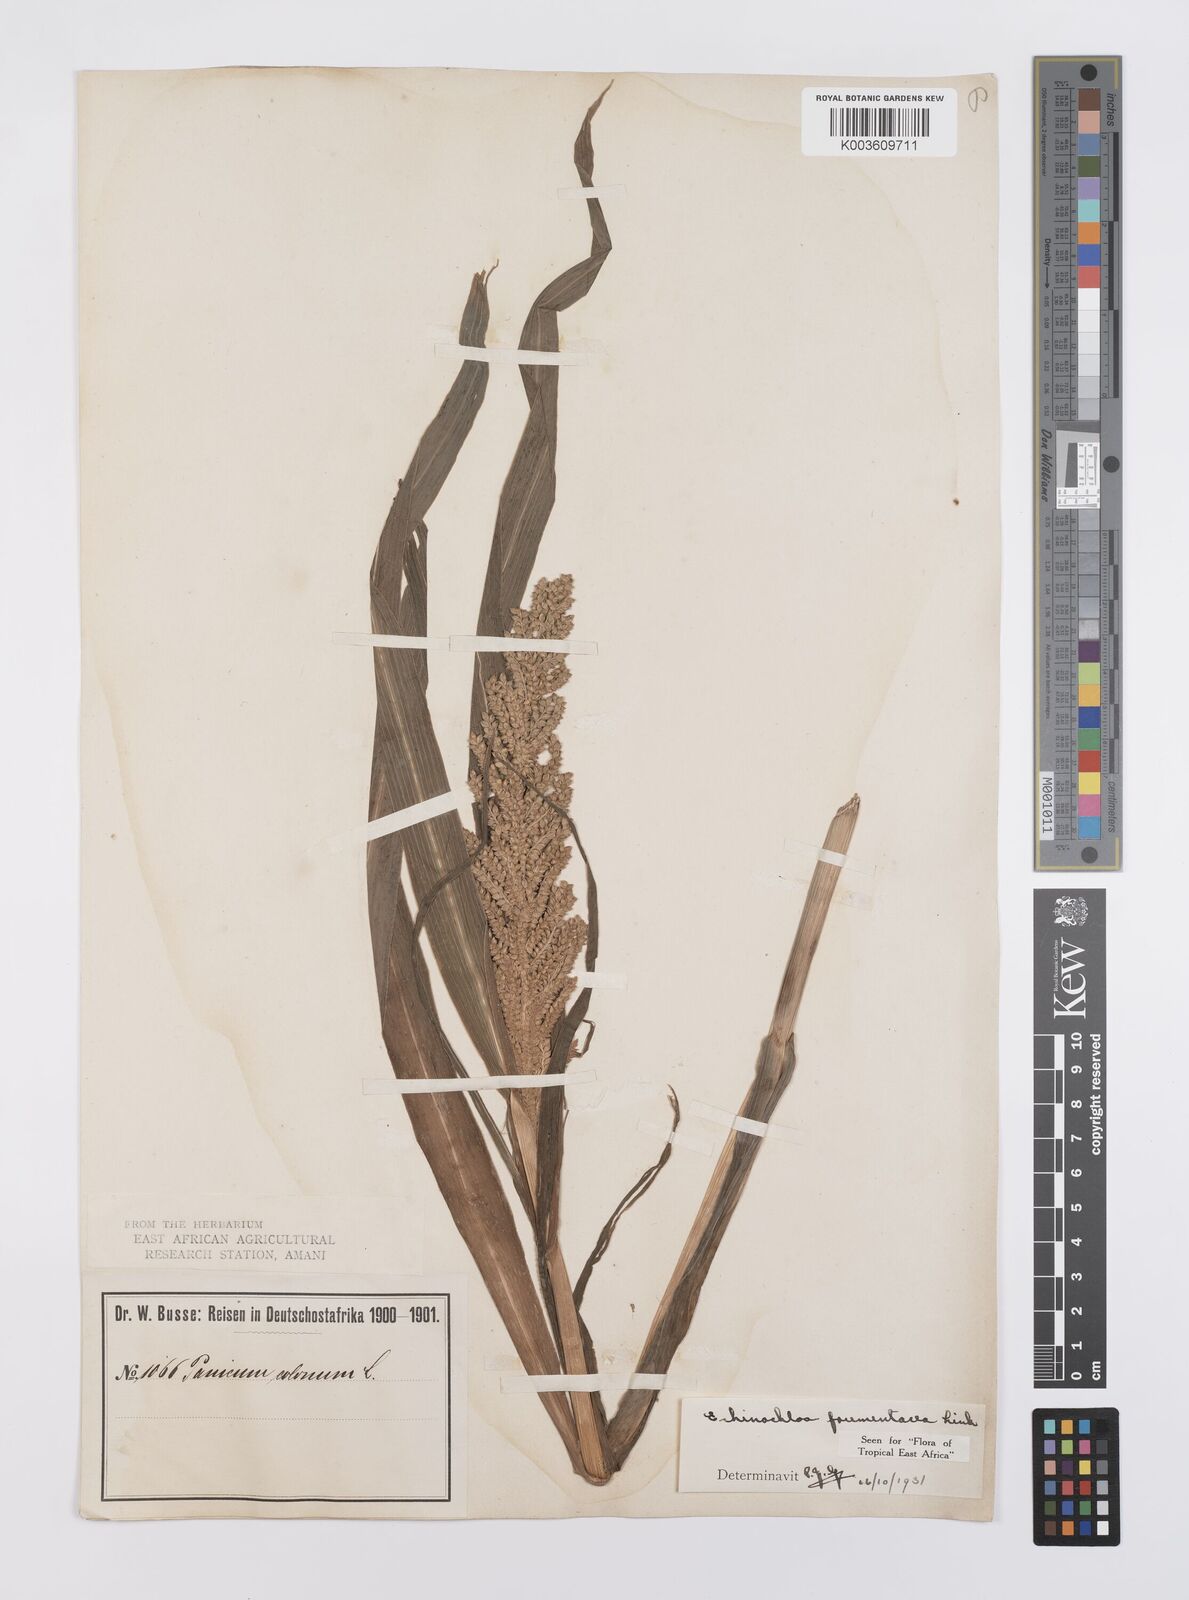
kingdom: Plantae
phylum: Tracheophyta
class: Liliopsida
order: Poales
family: Poaceae
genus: Echinochloa
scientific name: Echinochloa frumentacea
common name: Billion-dollar grass
